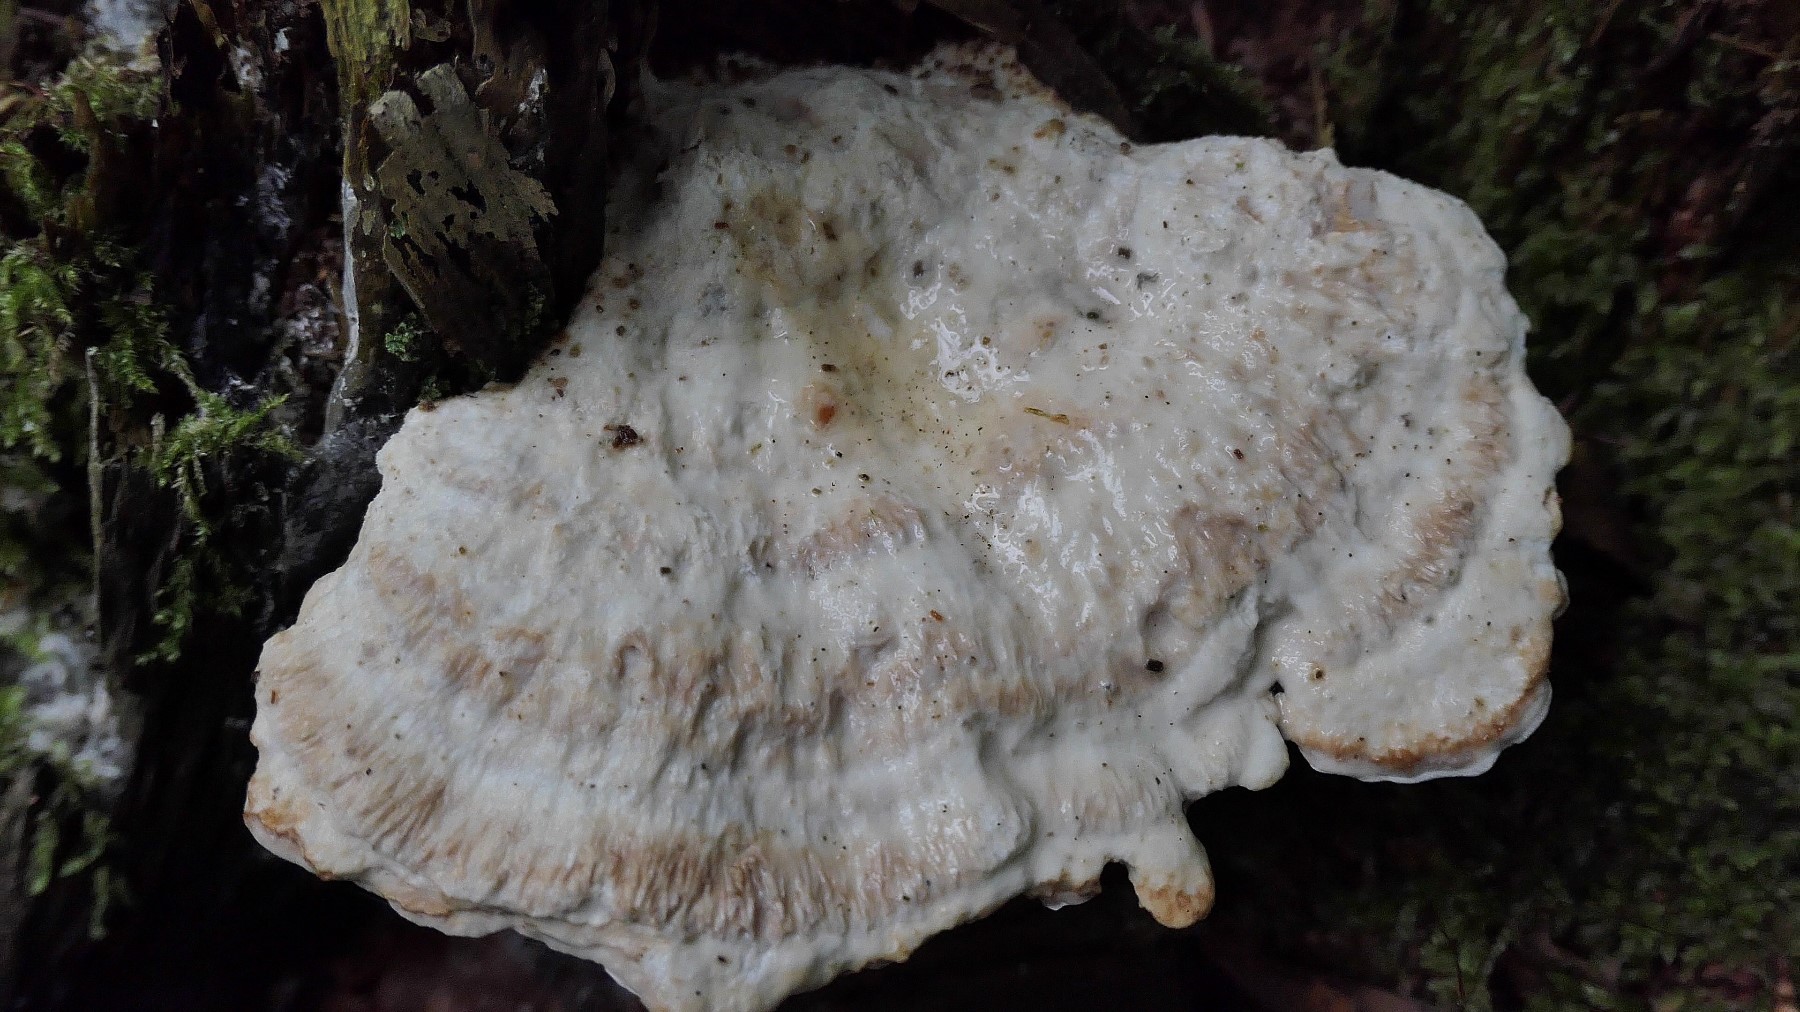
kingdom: Fungi
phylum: Basidiomycota
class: Agaricomycetes
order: Polyporales
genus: Calcipostia
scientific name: Calcipostia guttulata
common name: dråbe-kødporesvamp
